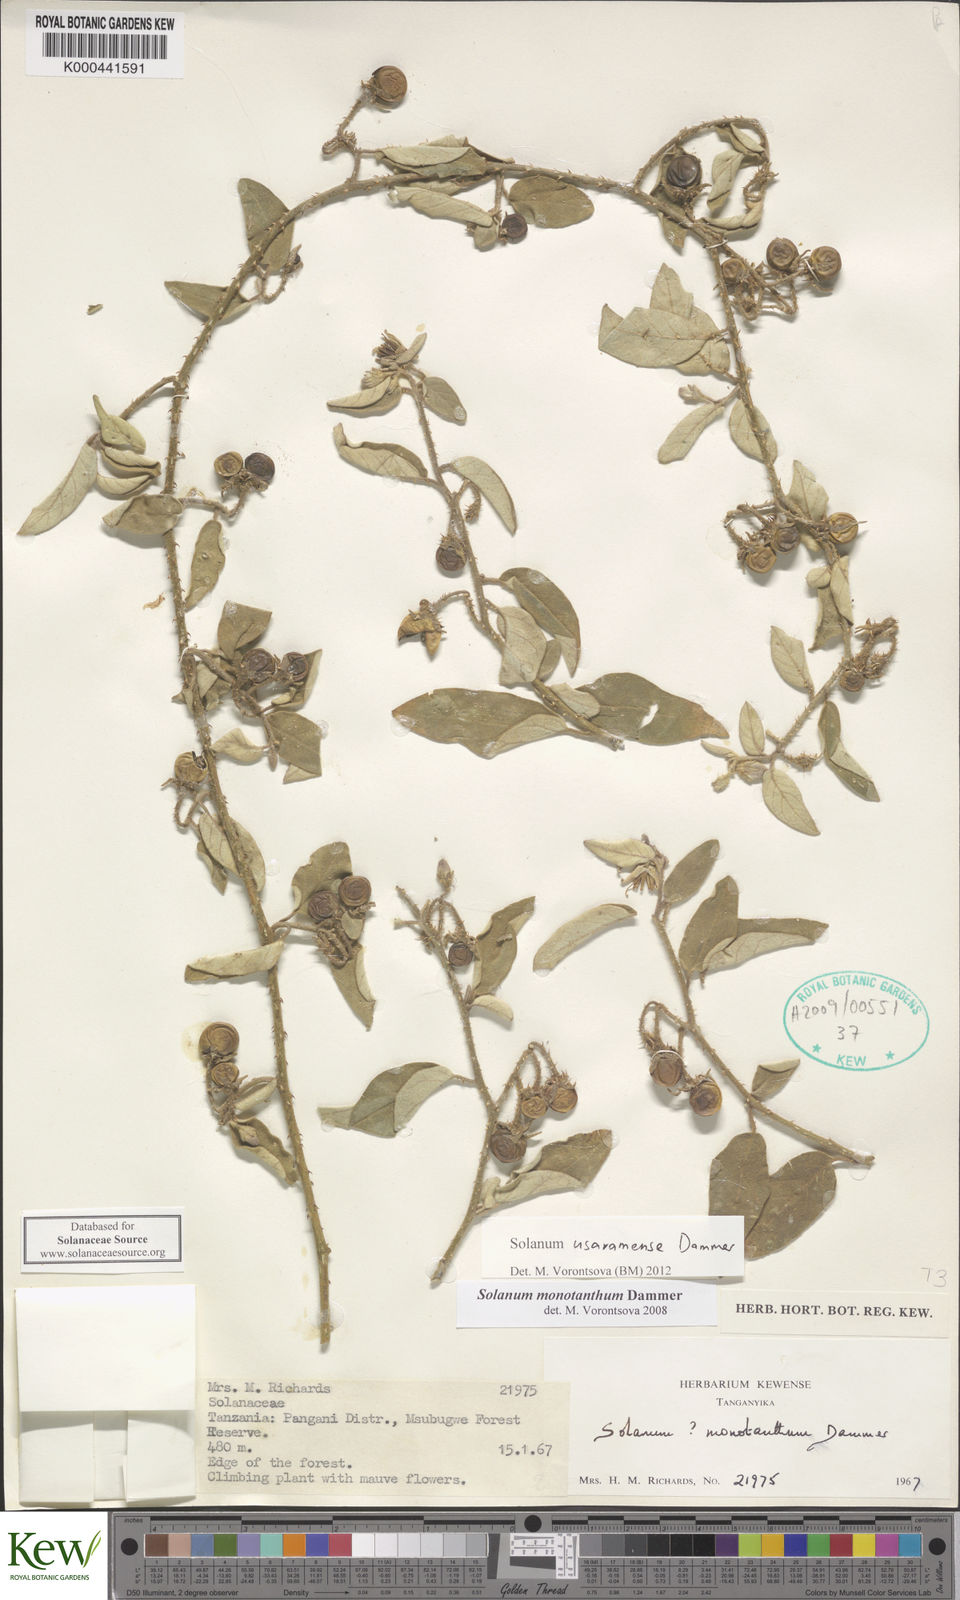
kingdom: Plantae
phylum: Tracheophyta
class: Magnoliopsida
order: Solanales
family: Solanaceae
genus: Solanum
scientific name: Solanum usaramense
